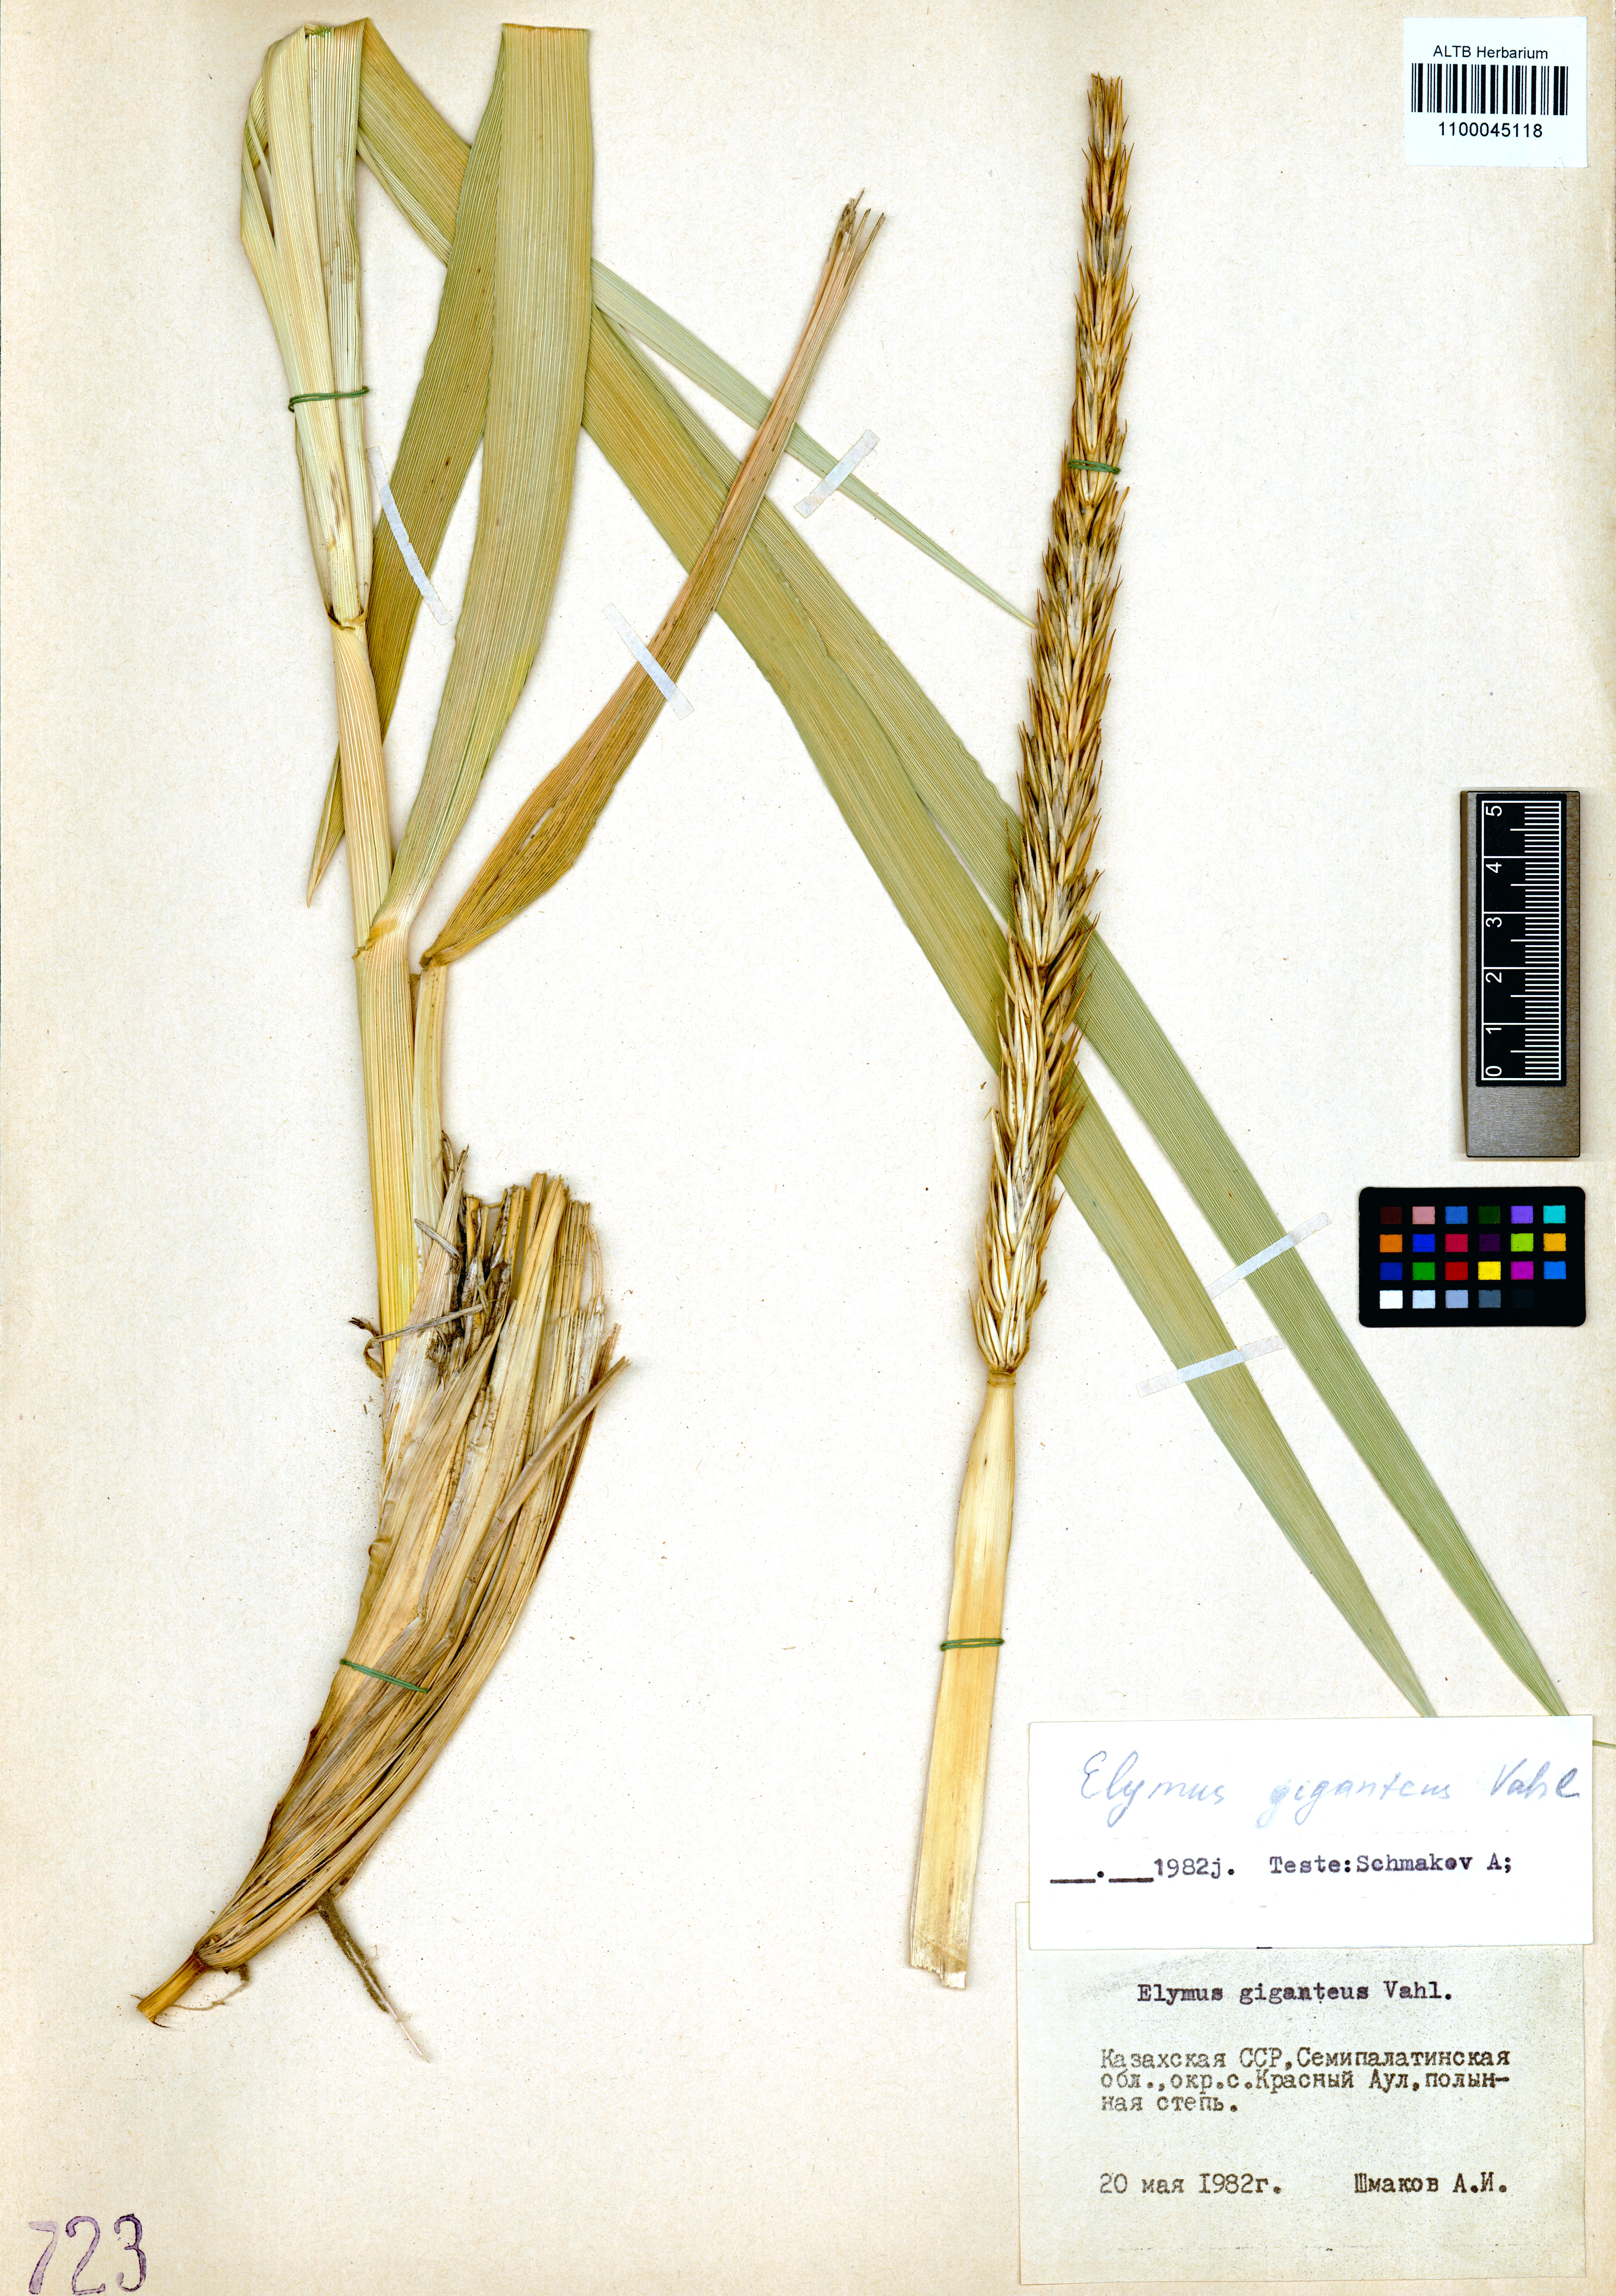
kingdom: Plantae
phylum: Tracheophyta
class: Liliopsida
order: Poales
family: Poaceae
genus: Leymus
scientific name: Leymus racemosus
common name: Mammoth wildrye
